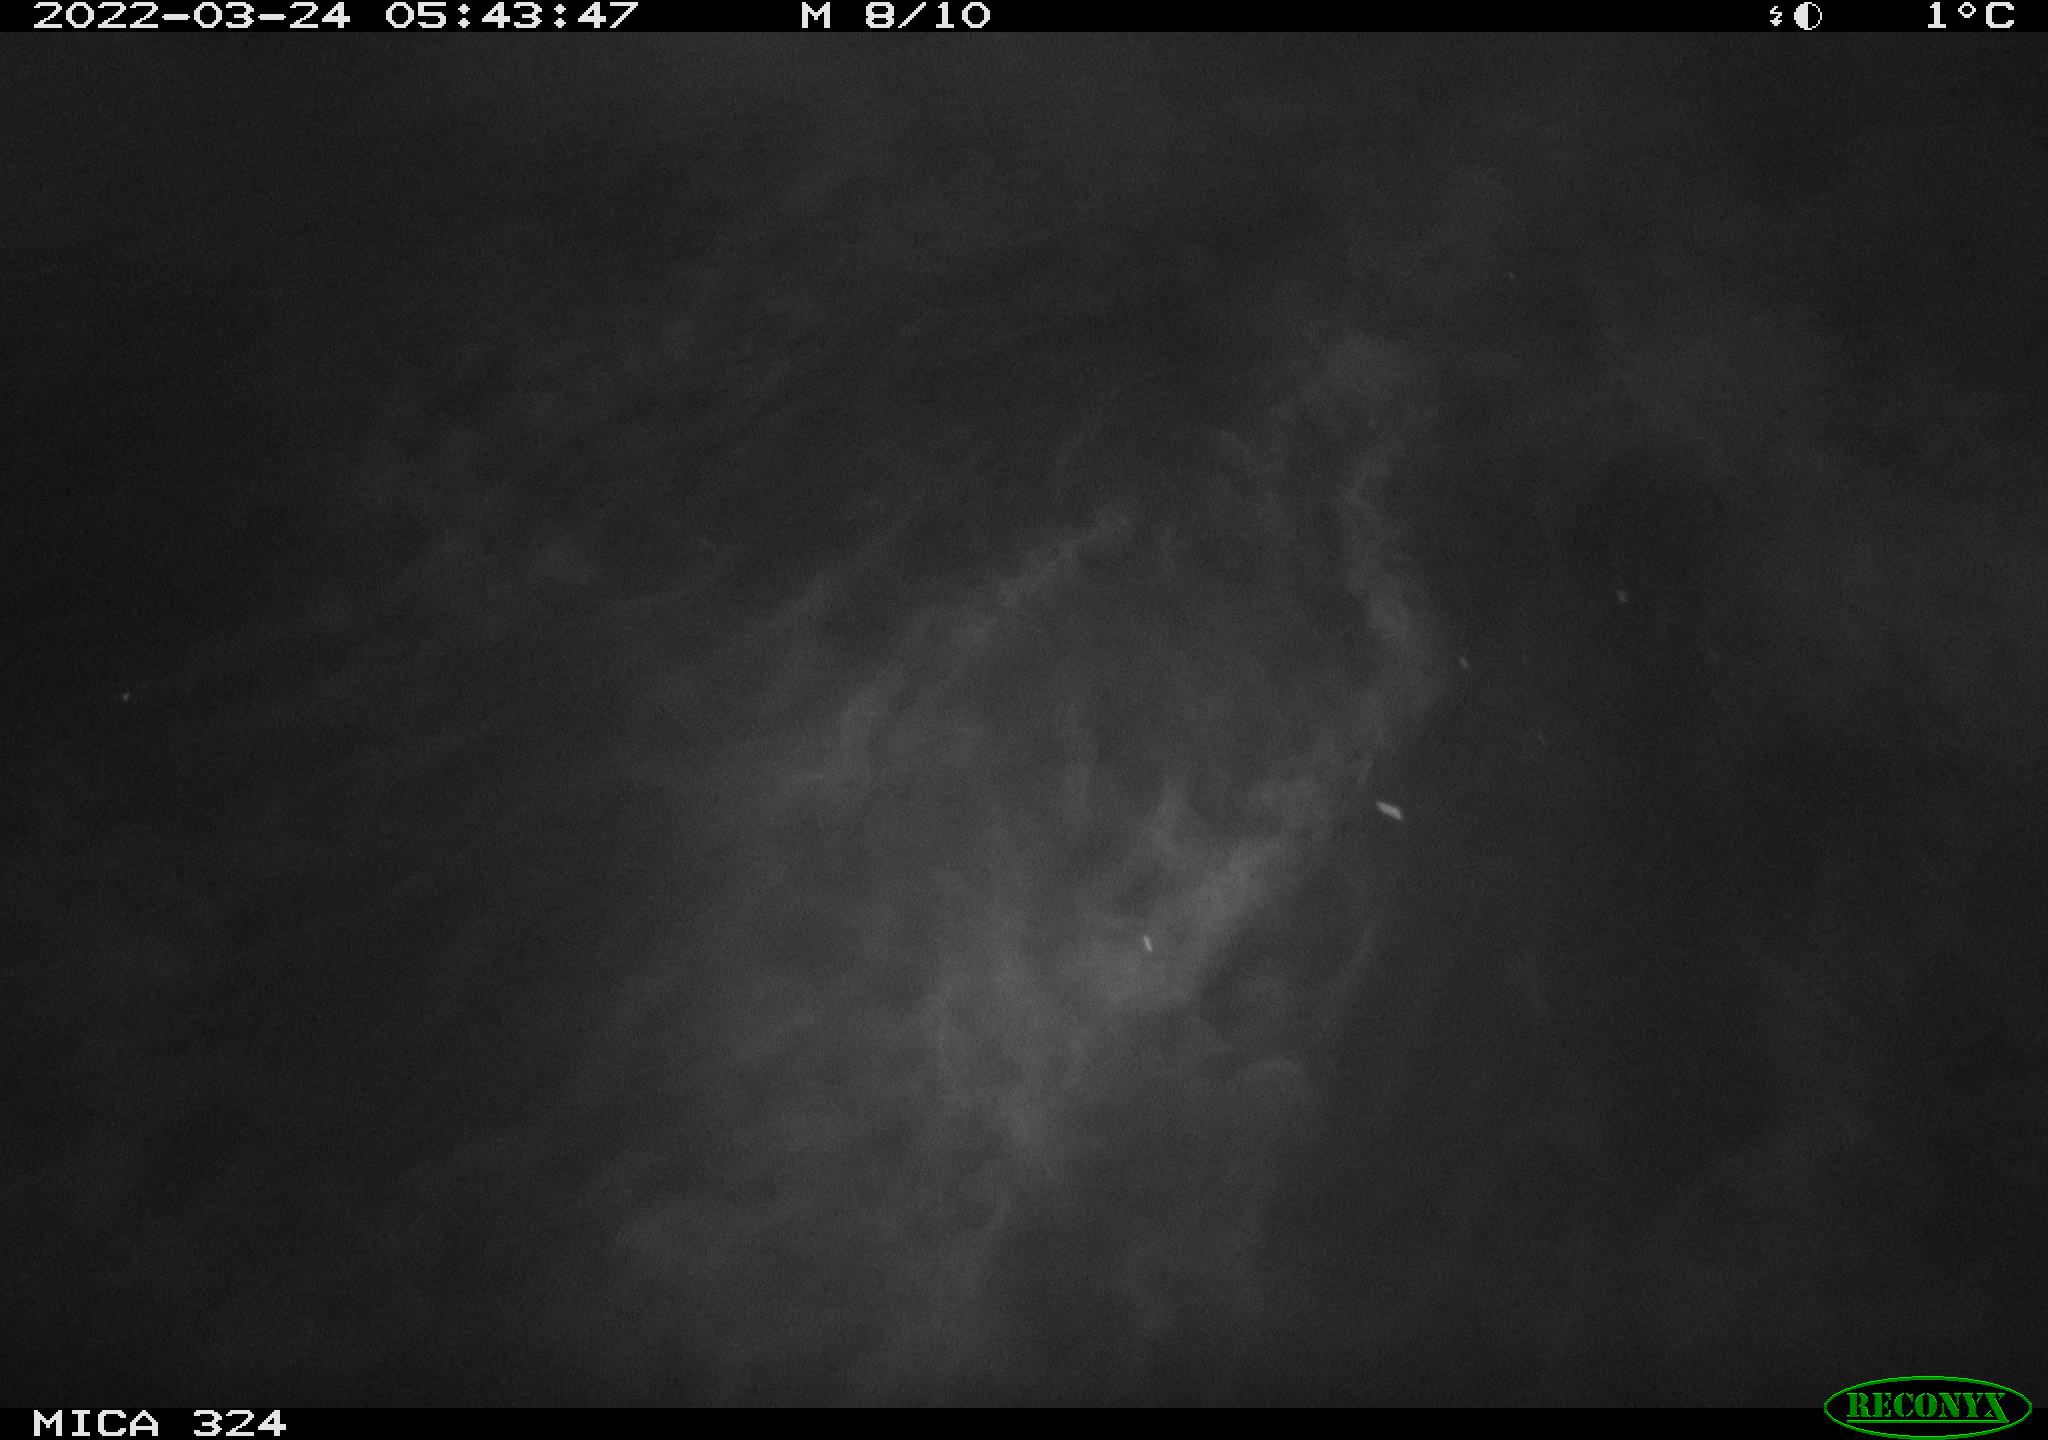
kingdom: Animalia
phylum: Chordata
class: Mammalia
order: Rodentia
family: Cricetidae
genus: Ondatra
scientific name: Ondatra zibethicus
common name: Muskrat
